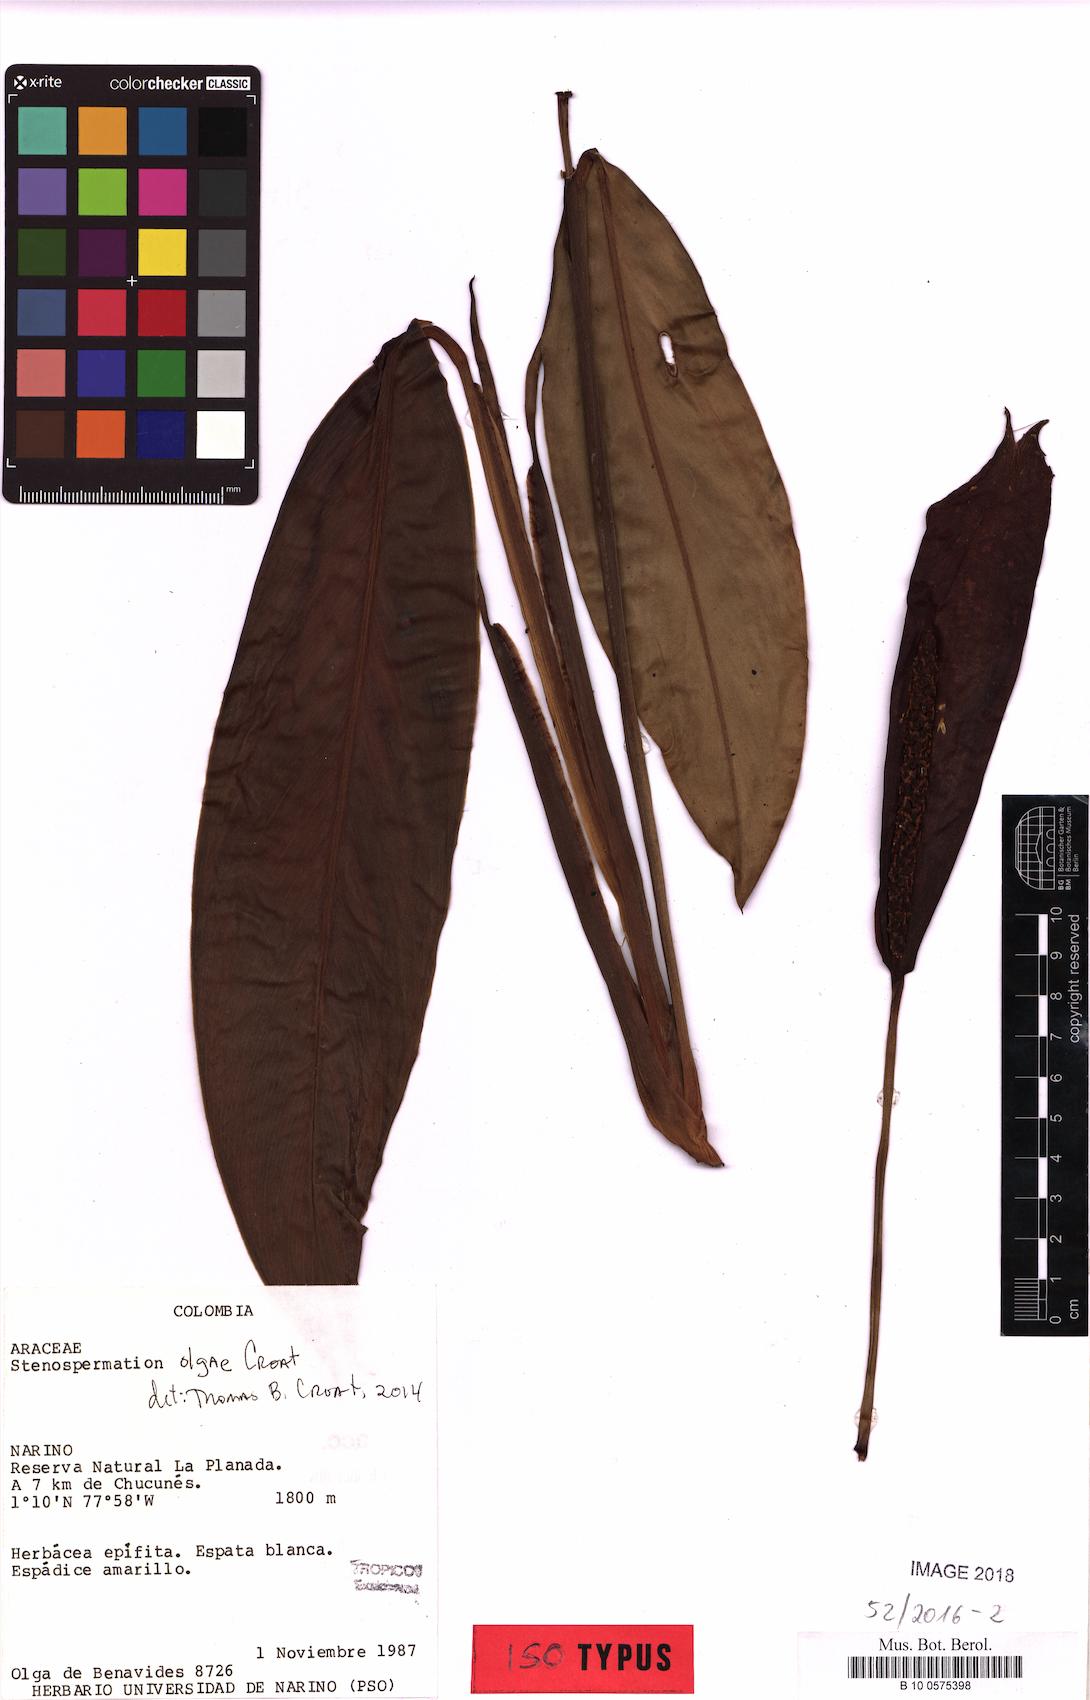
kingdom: Plantae
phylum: Tracheophyta
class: Liliopsida
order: Alismatales
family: Araceae
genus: Stenospermation
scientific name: Stenospermation olgae
